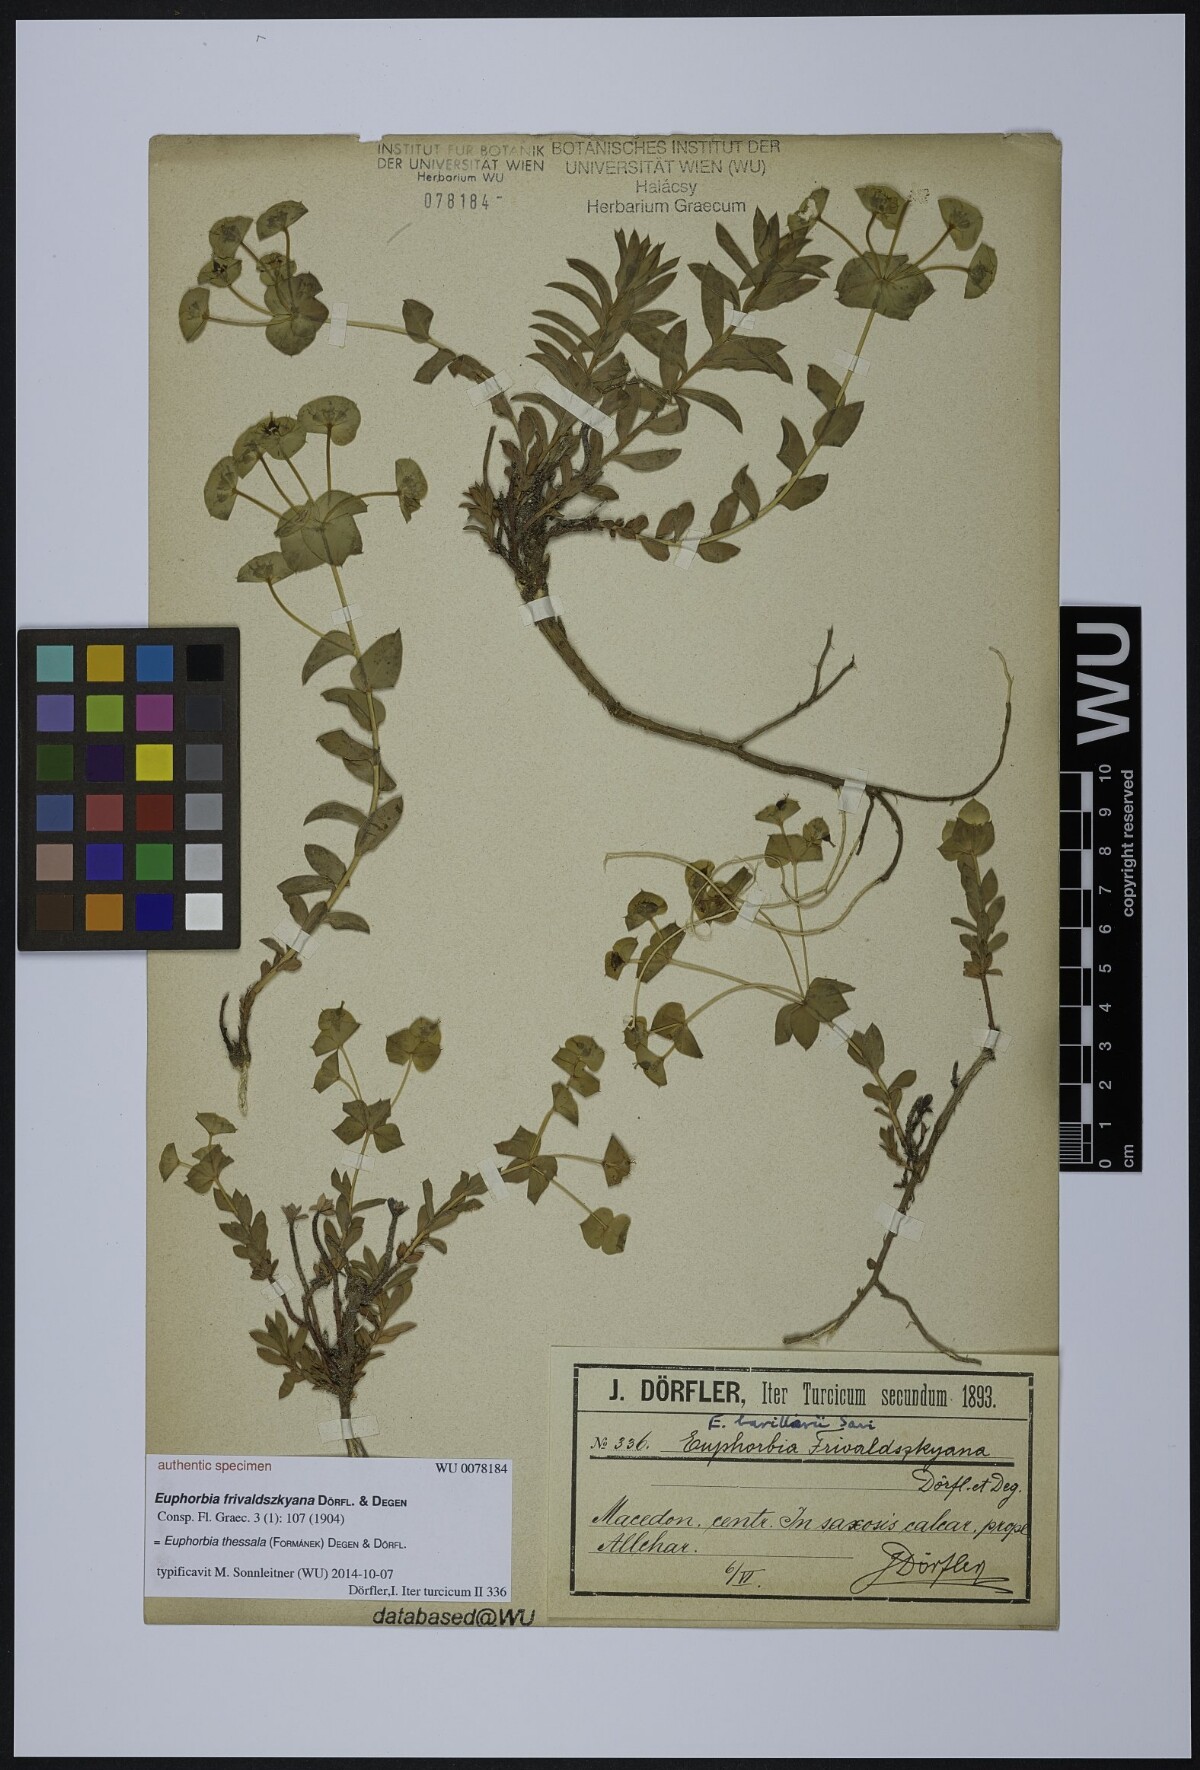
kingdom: Plantae
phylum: Tracheophyta
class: Magnoliopsida
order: Malpighiales
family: Euphorbiaceae
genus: Euphorbia
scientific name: Euphorbia barrelieri
